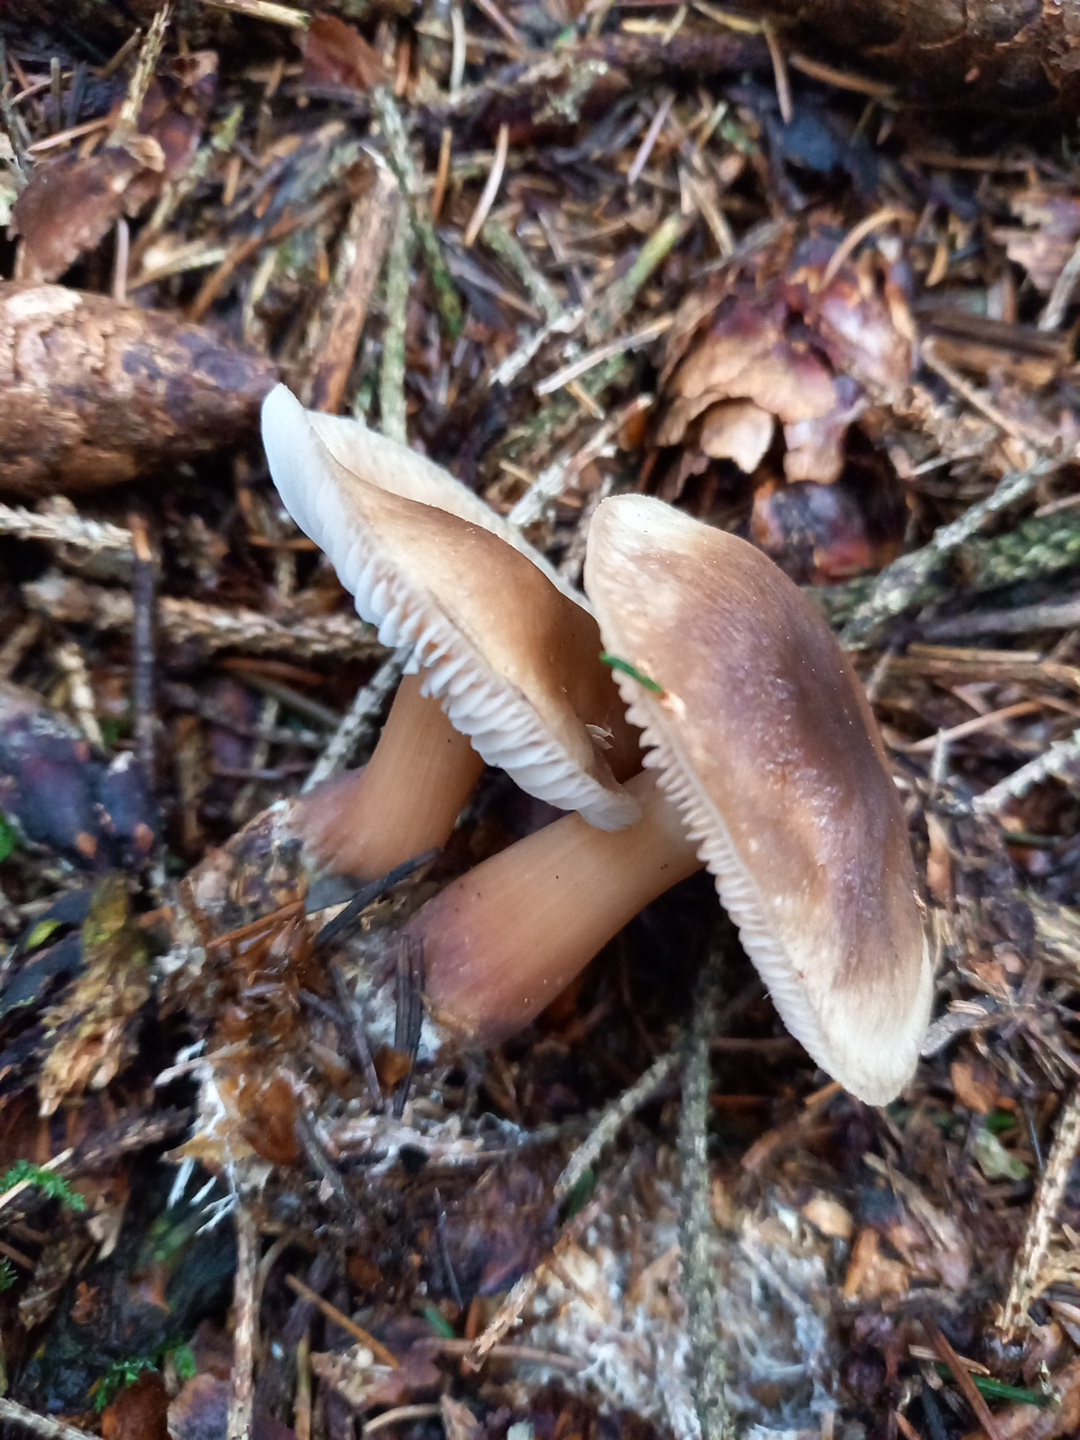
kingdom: Fungi
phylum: Basidiomycota
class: Agaricomycetes
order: Agaricales
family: Omphalotaceae
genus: Rhodocollybia
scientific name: Rhodocollybia butyracea
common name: keglestokket fladhat
